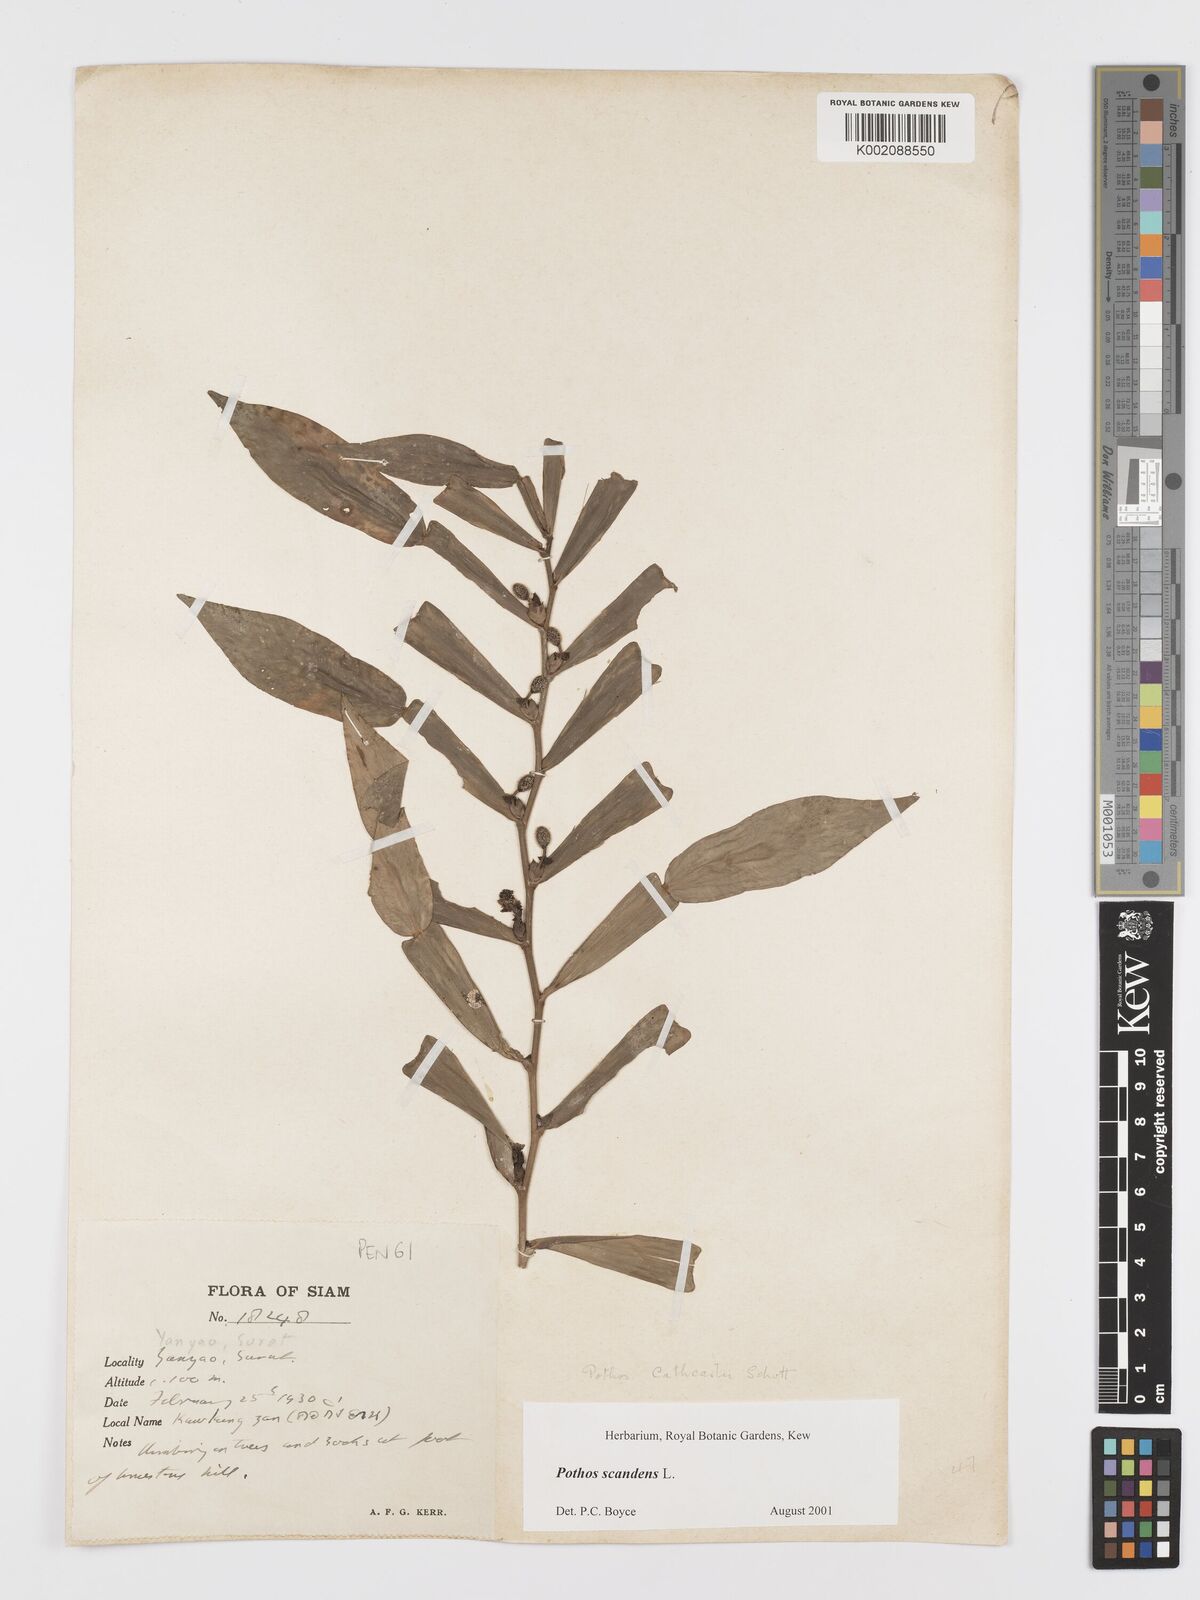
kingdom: Plantae
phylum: Tracheophyta
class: Liliopsida
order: Alismatales
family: Araceae
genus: Pothos
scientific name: Pothos scandens
